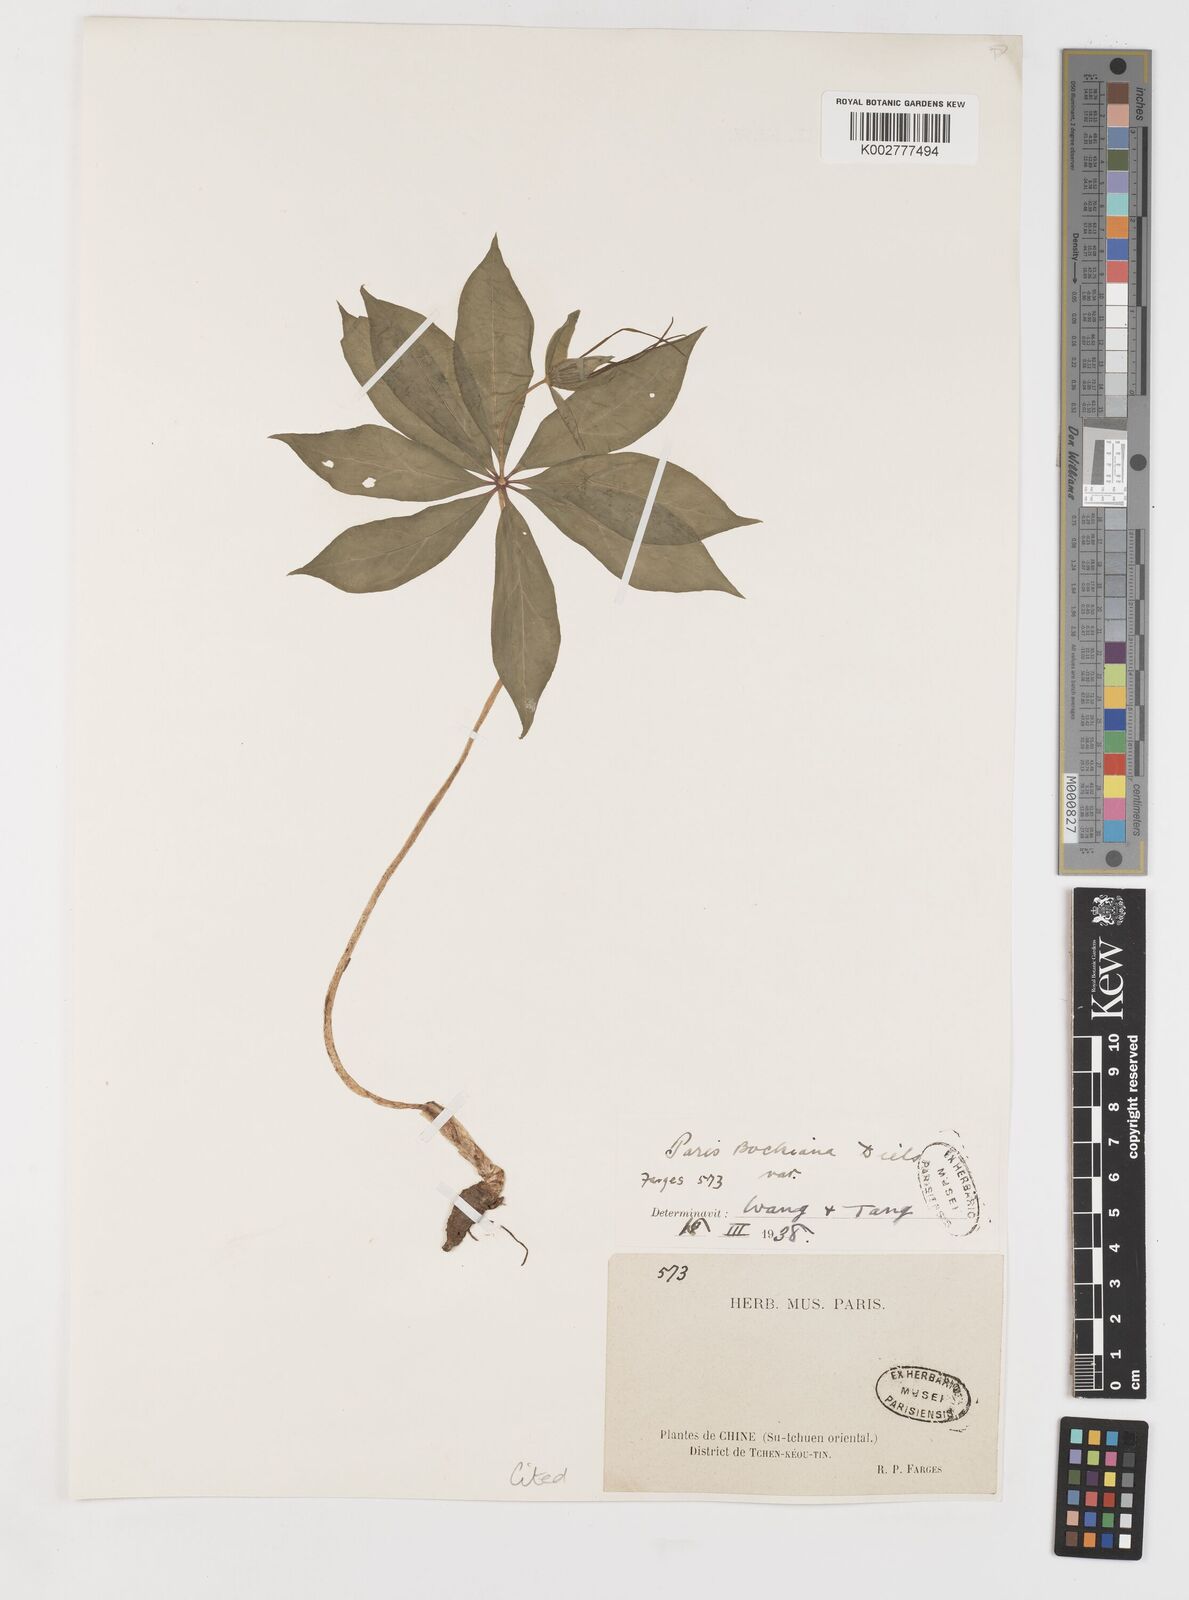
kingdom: Plantae
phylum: Tracheophyta
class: Liliopsida
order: Liliales
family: Melanthiaceae
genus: Paris
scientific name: Paris delavayi
